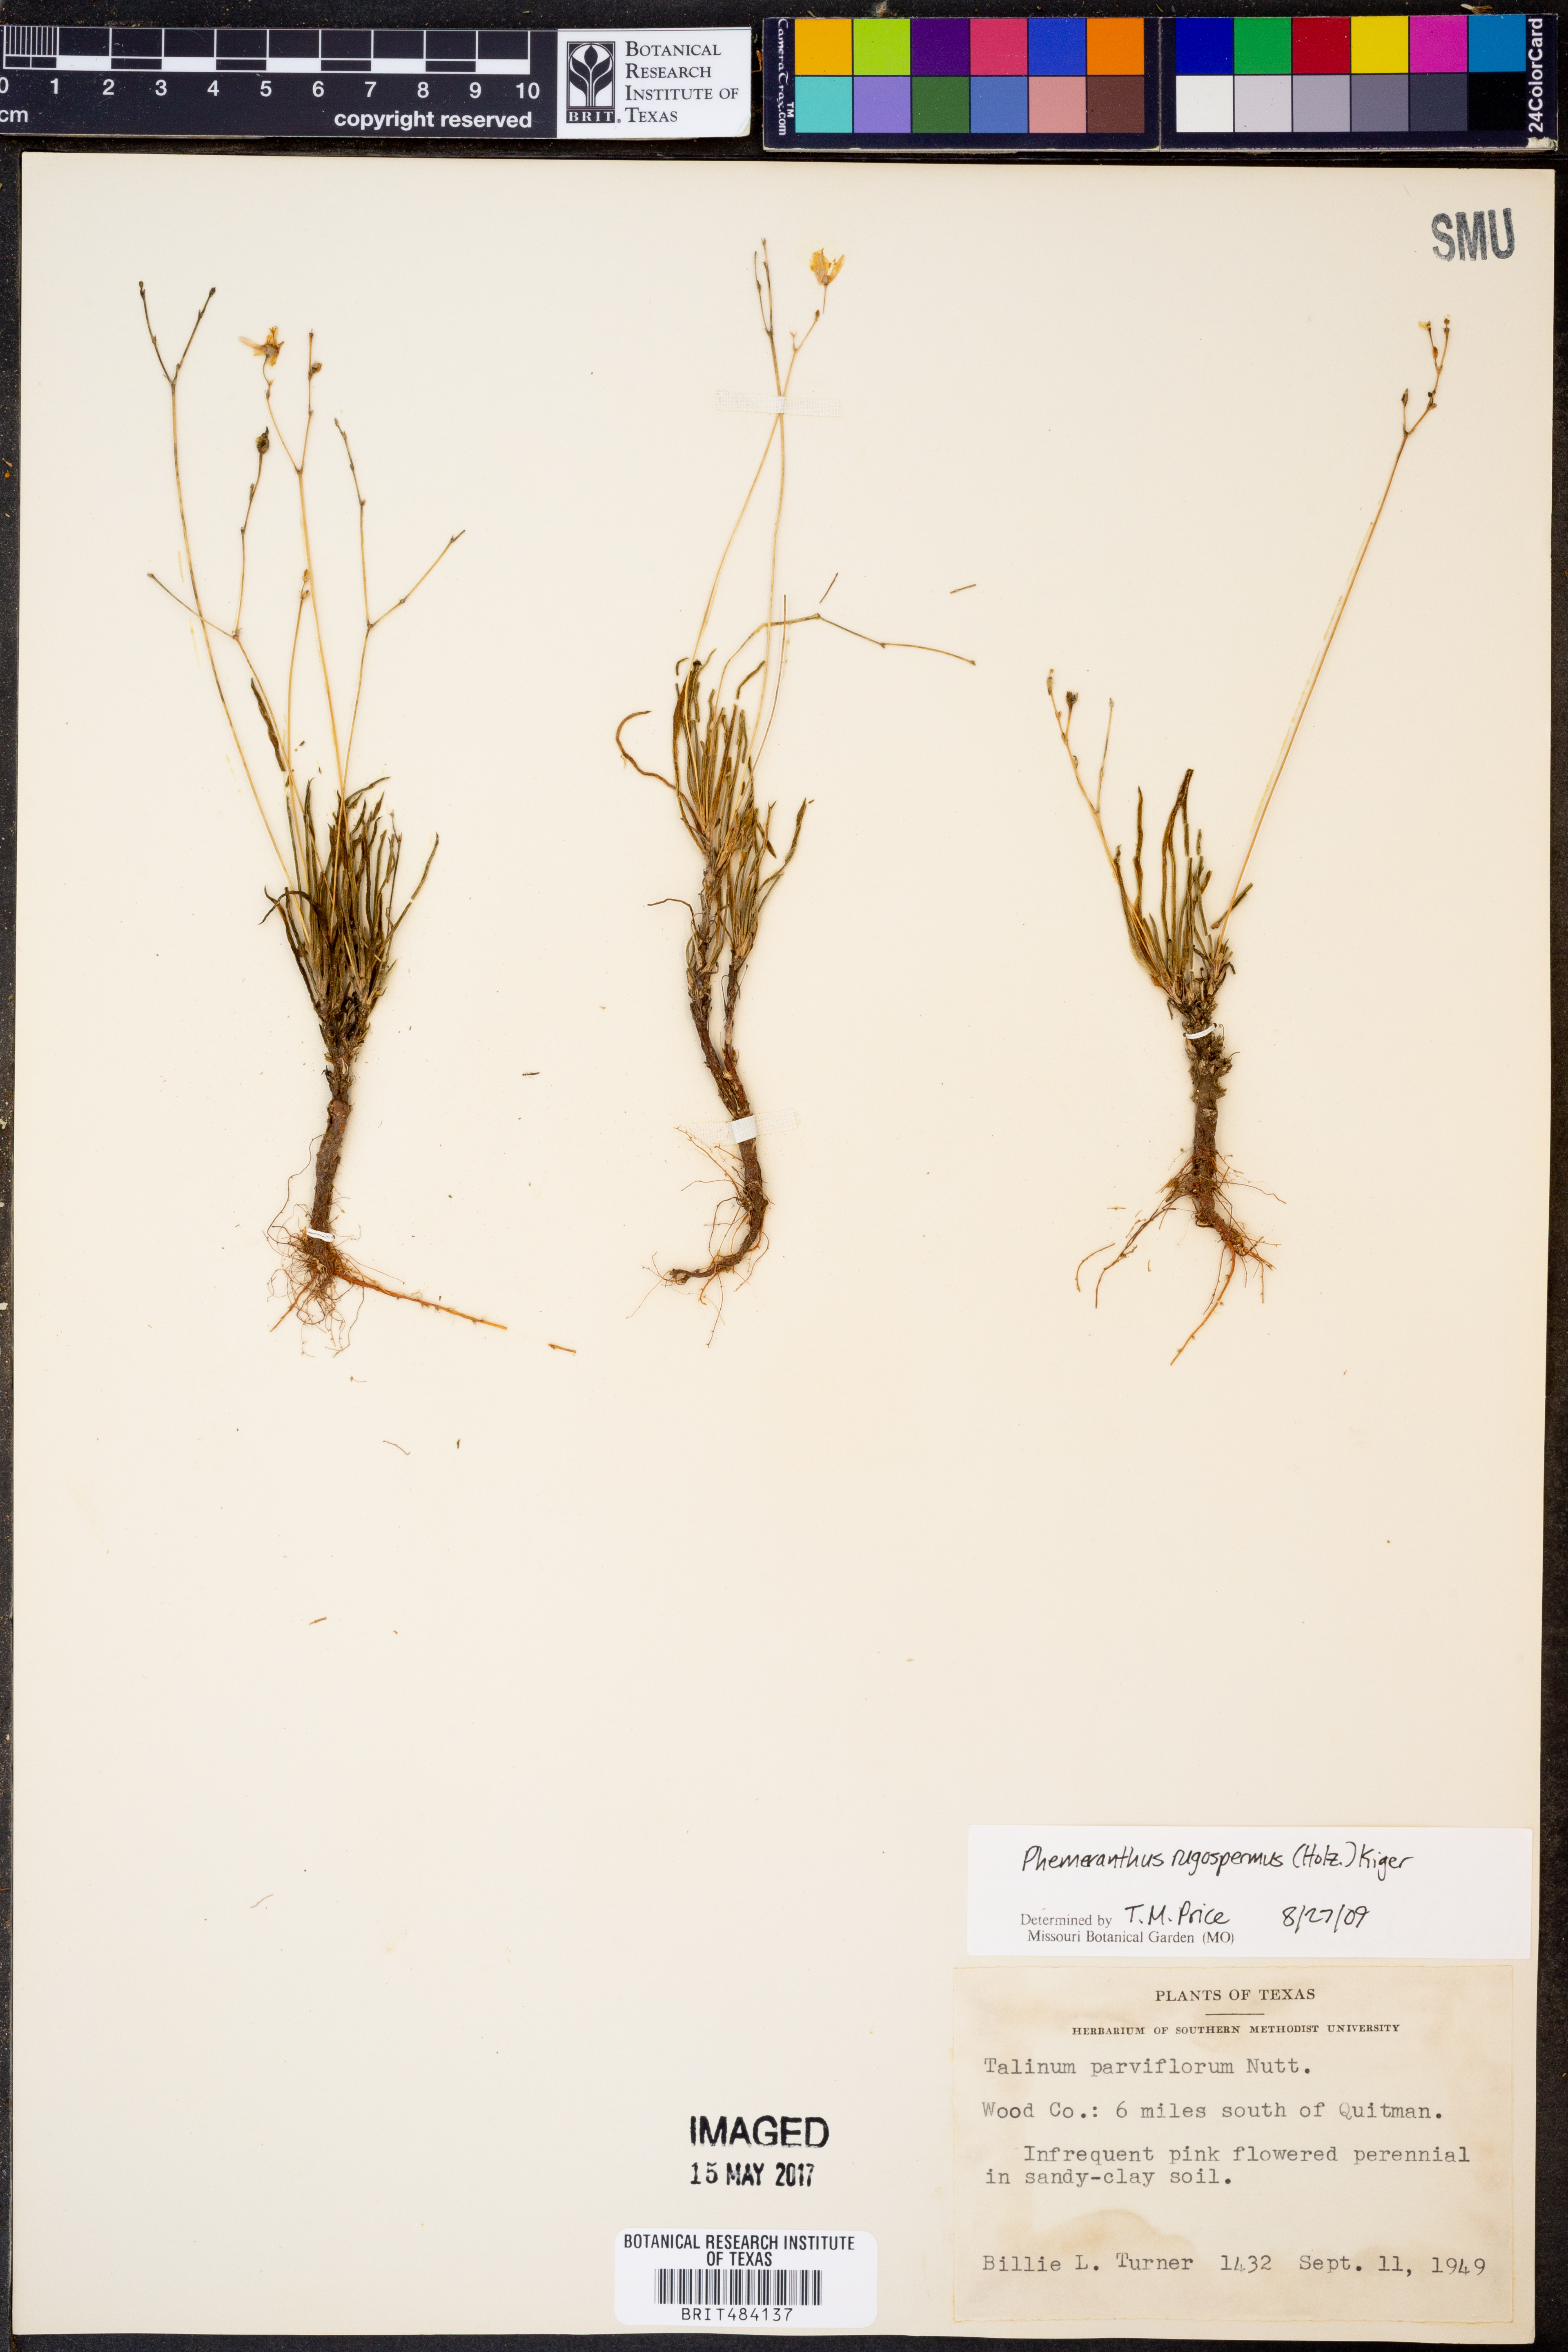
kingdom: Plantae
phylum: Tracheophyta
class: Magnoliopsida
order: Caryophyllales
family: Montiaceae
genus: Phemeranthus
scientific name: Phemeranthus rugospermus
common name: Prairie fameflower
